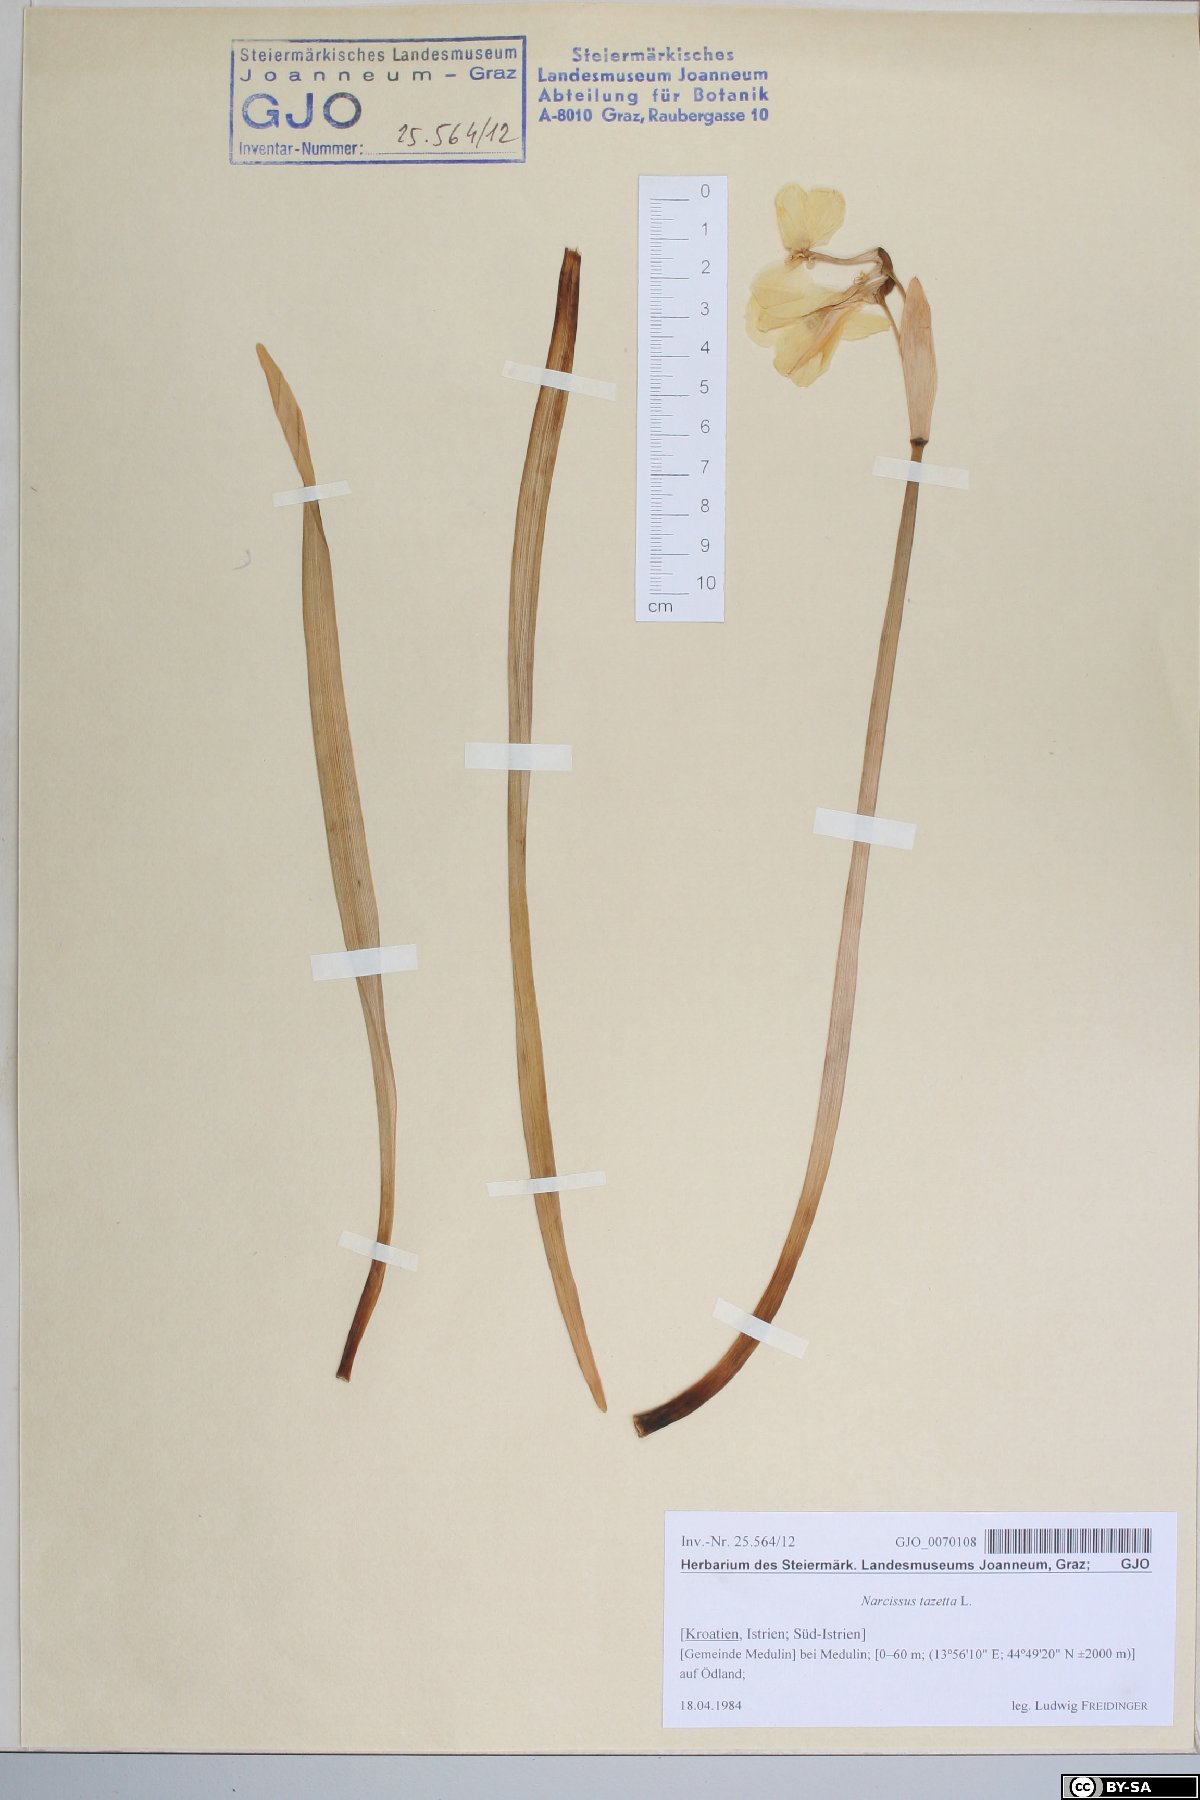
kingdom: Plantae
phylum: Tracheophyta
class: Liliopsida
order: Asparagales
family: Amaryllidaceae
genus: Narcissus
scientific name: Narcissus tazetta
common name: Bunch-flowered daffodil
